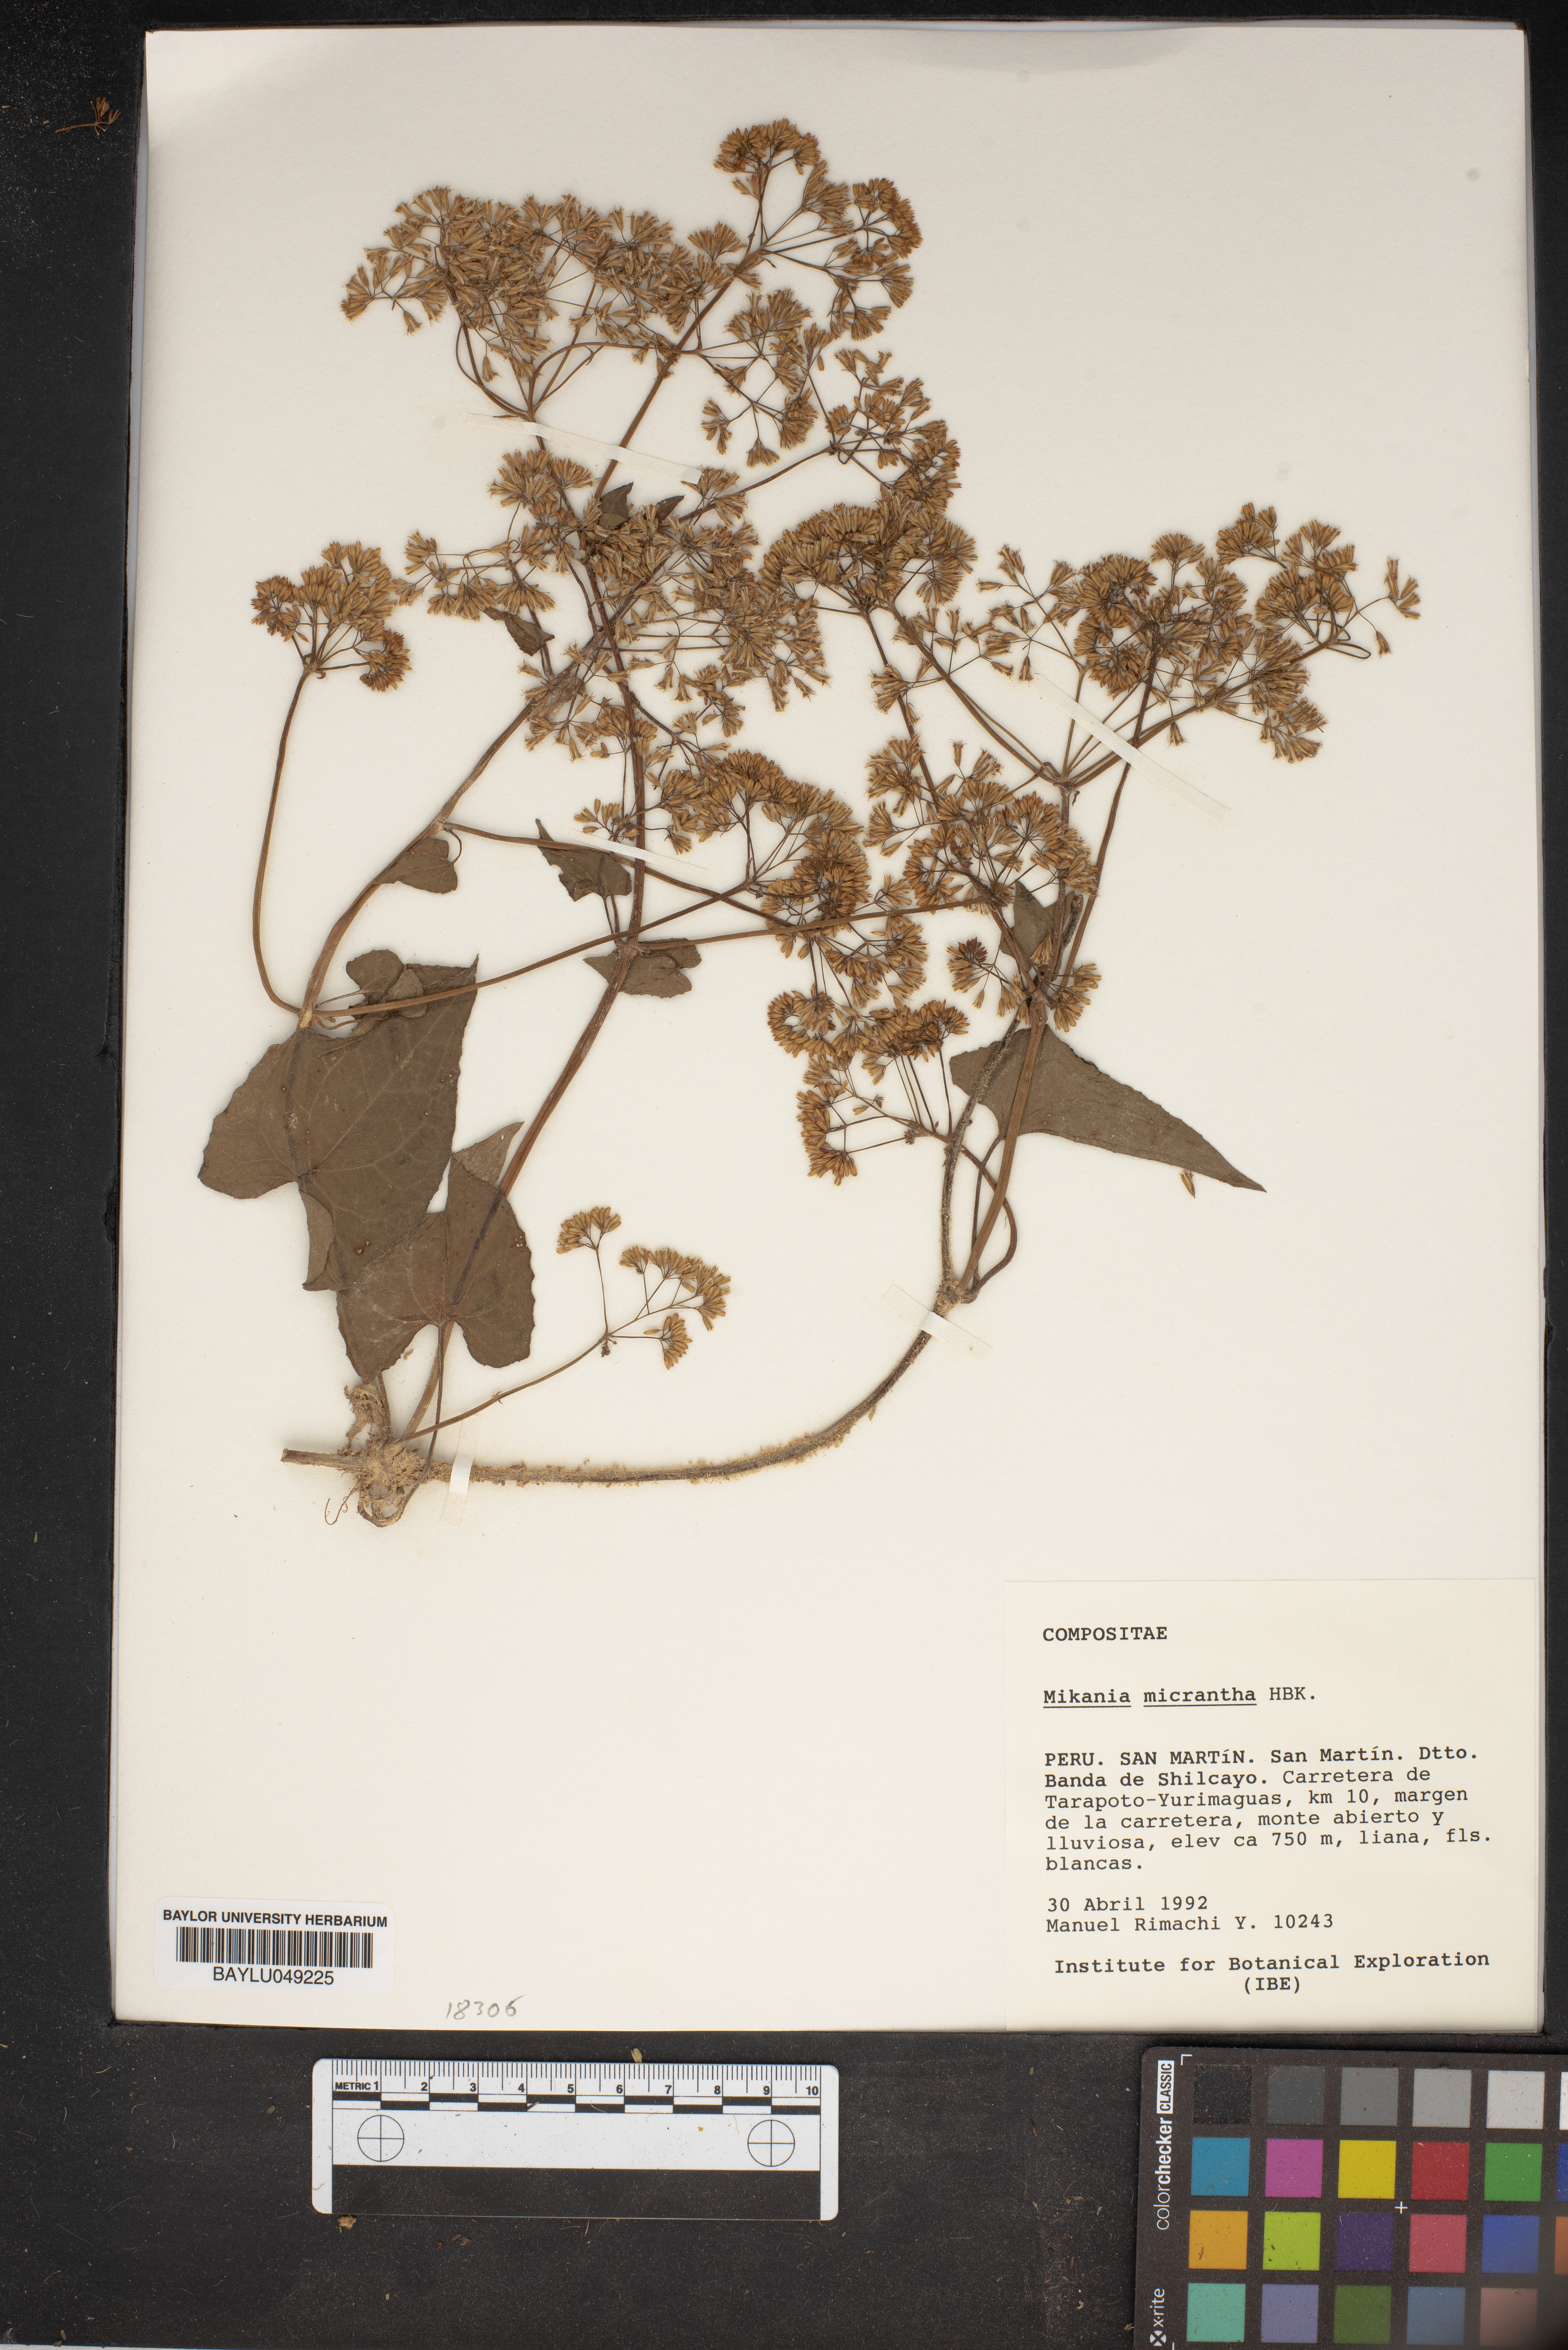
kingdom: Plantae
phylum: Tracheophyta
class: Magnoliopsida
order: Asterales
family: Asteraceae
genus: Mikania
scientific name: Mikania micrantha
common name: Mile-a-minute
